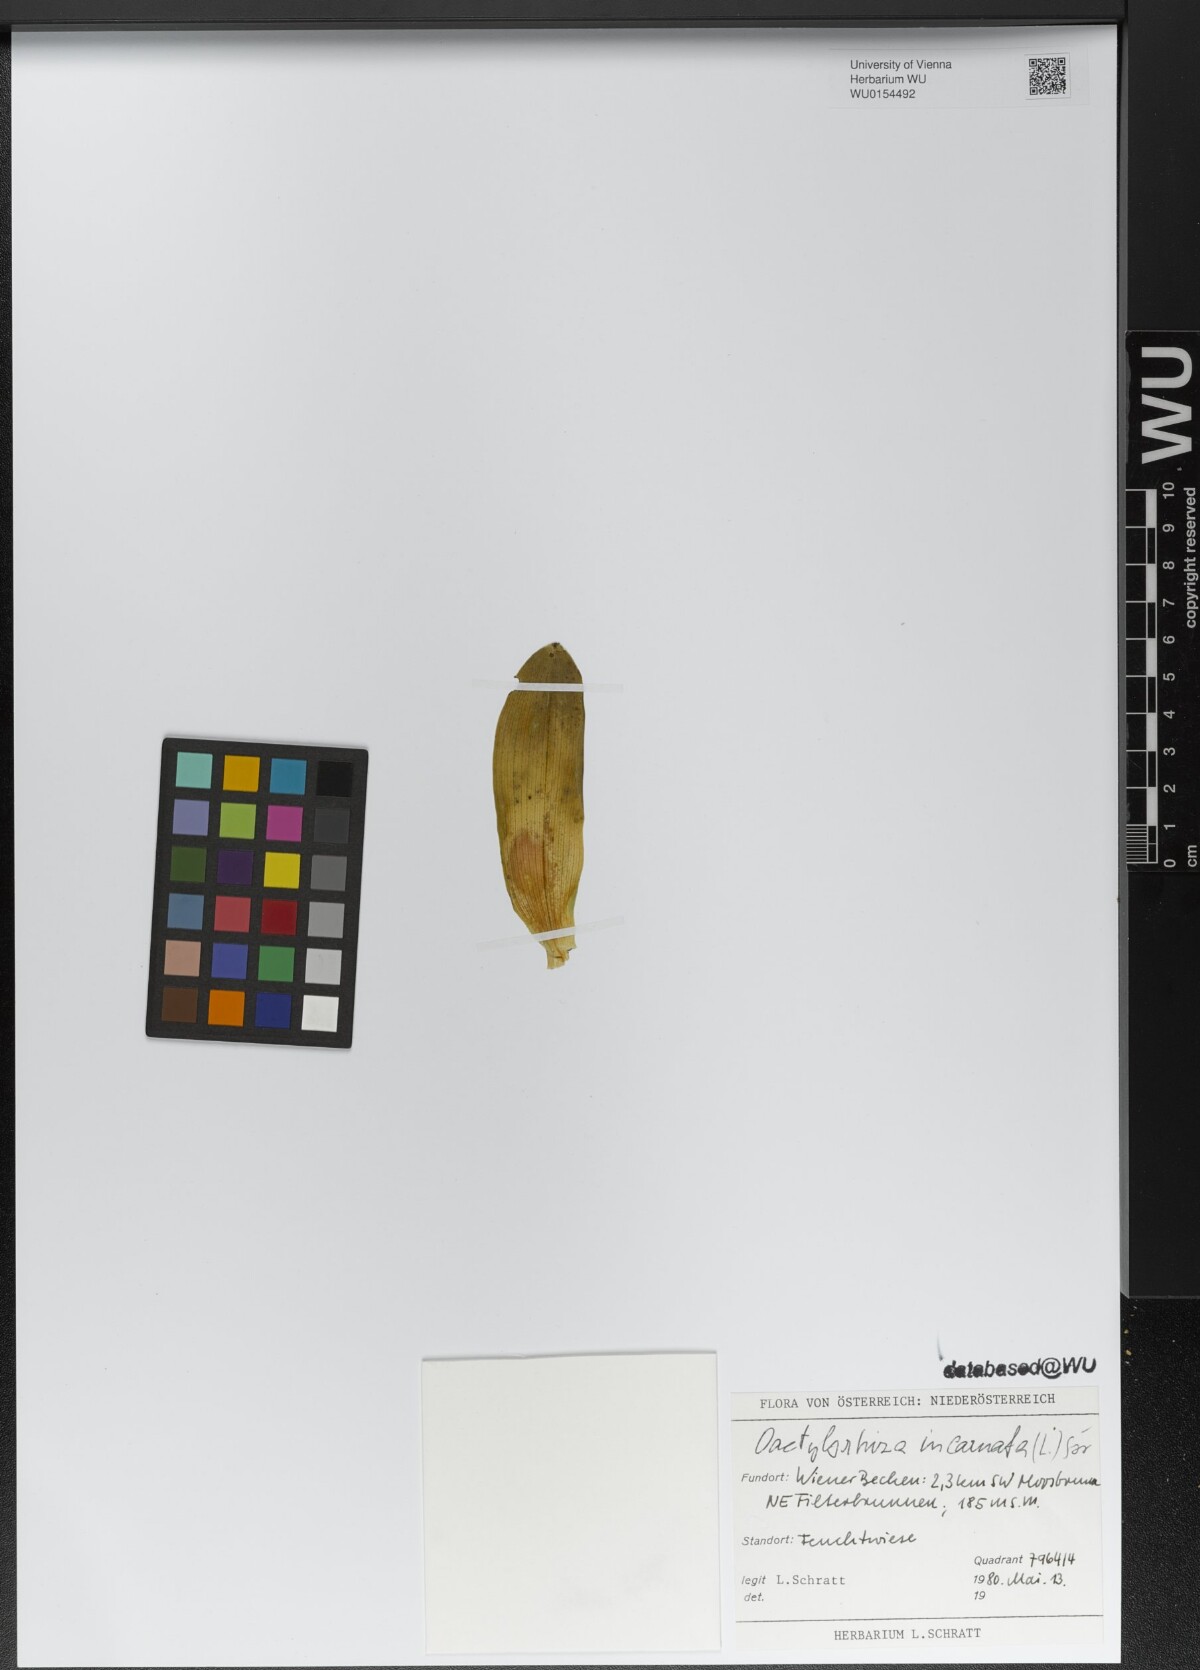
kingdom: Plantae
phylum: Tracheophyta
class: Liliopsida
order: Asparagales
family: Orchidaceae
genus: Dactylorhiza
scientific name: Dactylorhiza incarnata
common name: Early marsh-orchid
